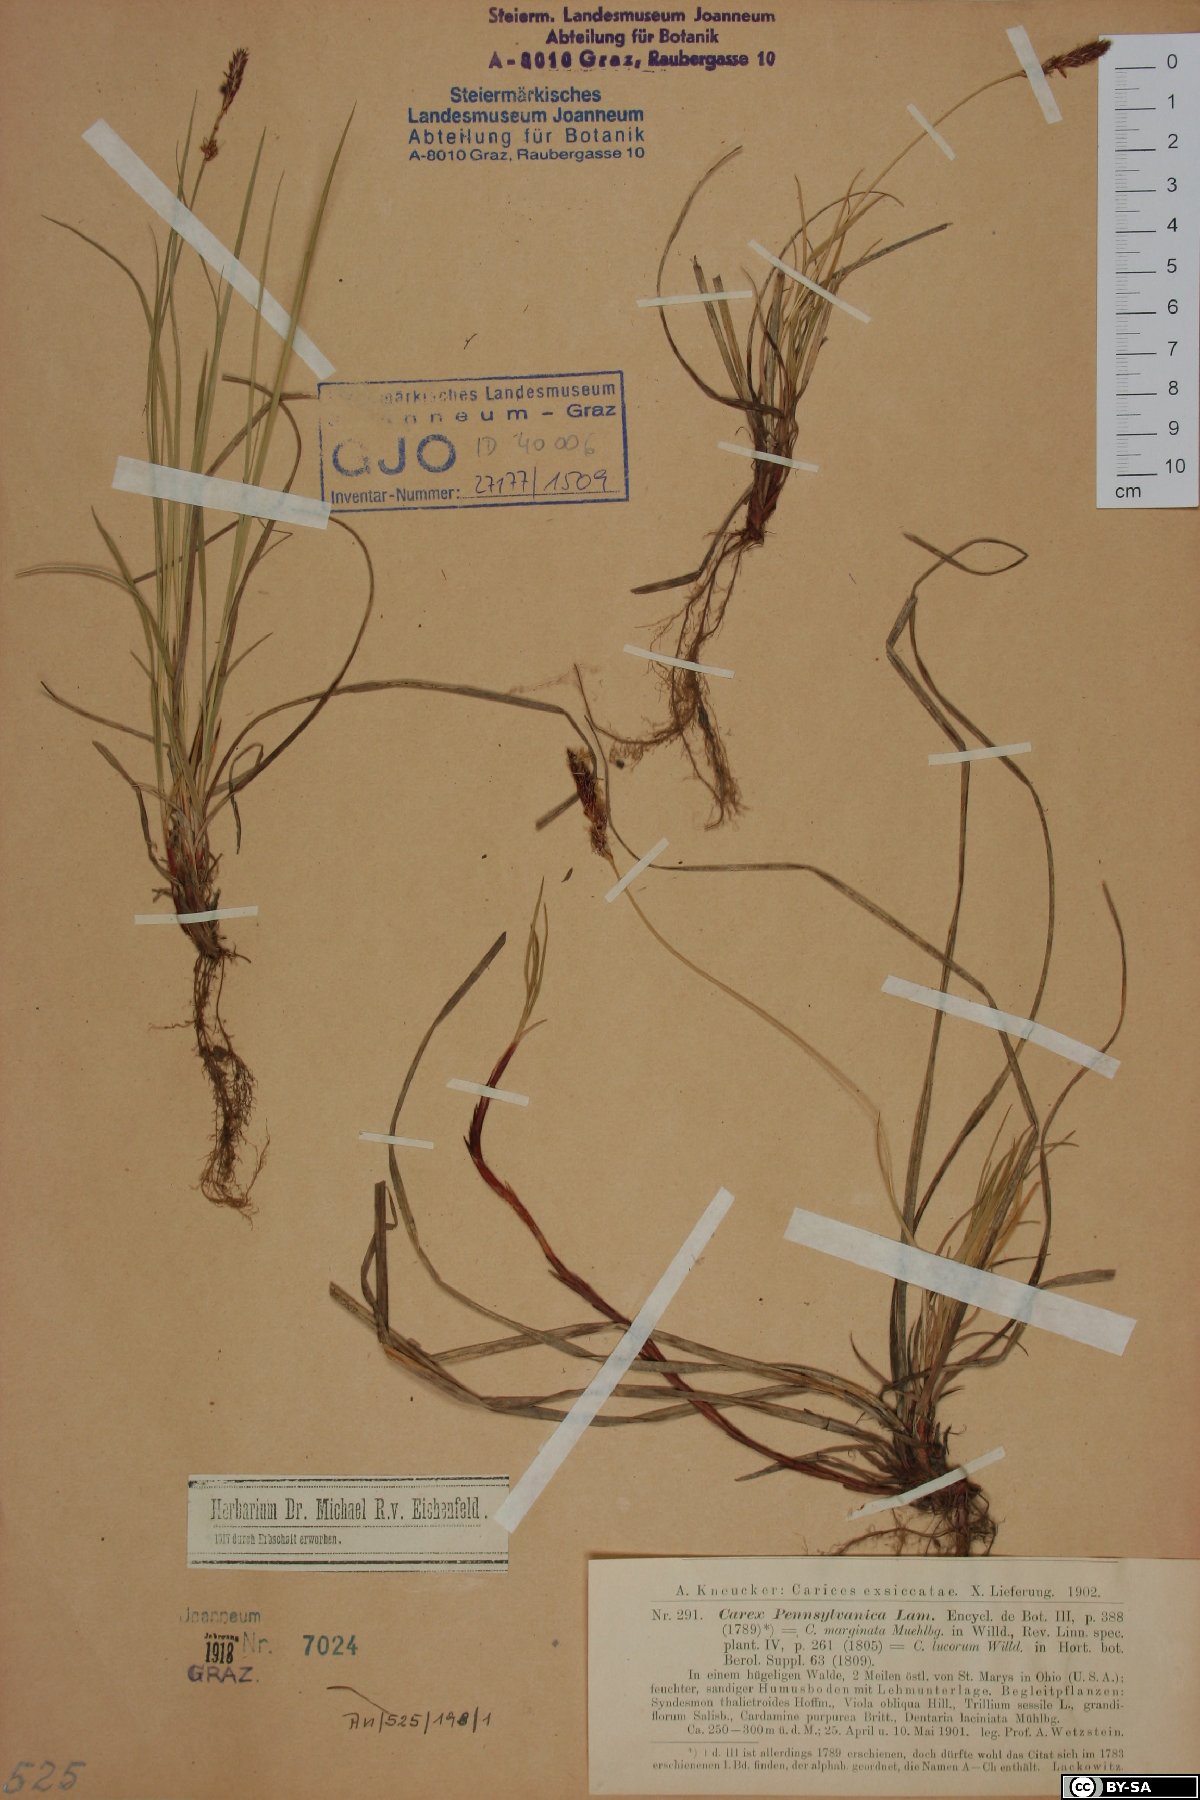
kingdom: Plantae
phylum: Tracheophyta
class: Liliopsida
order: Poales
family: Cyperaceae
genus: Carex
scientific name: Carex pensylvanica
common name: Common oak sedge
